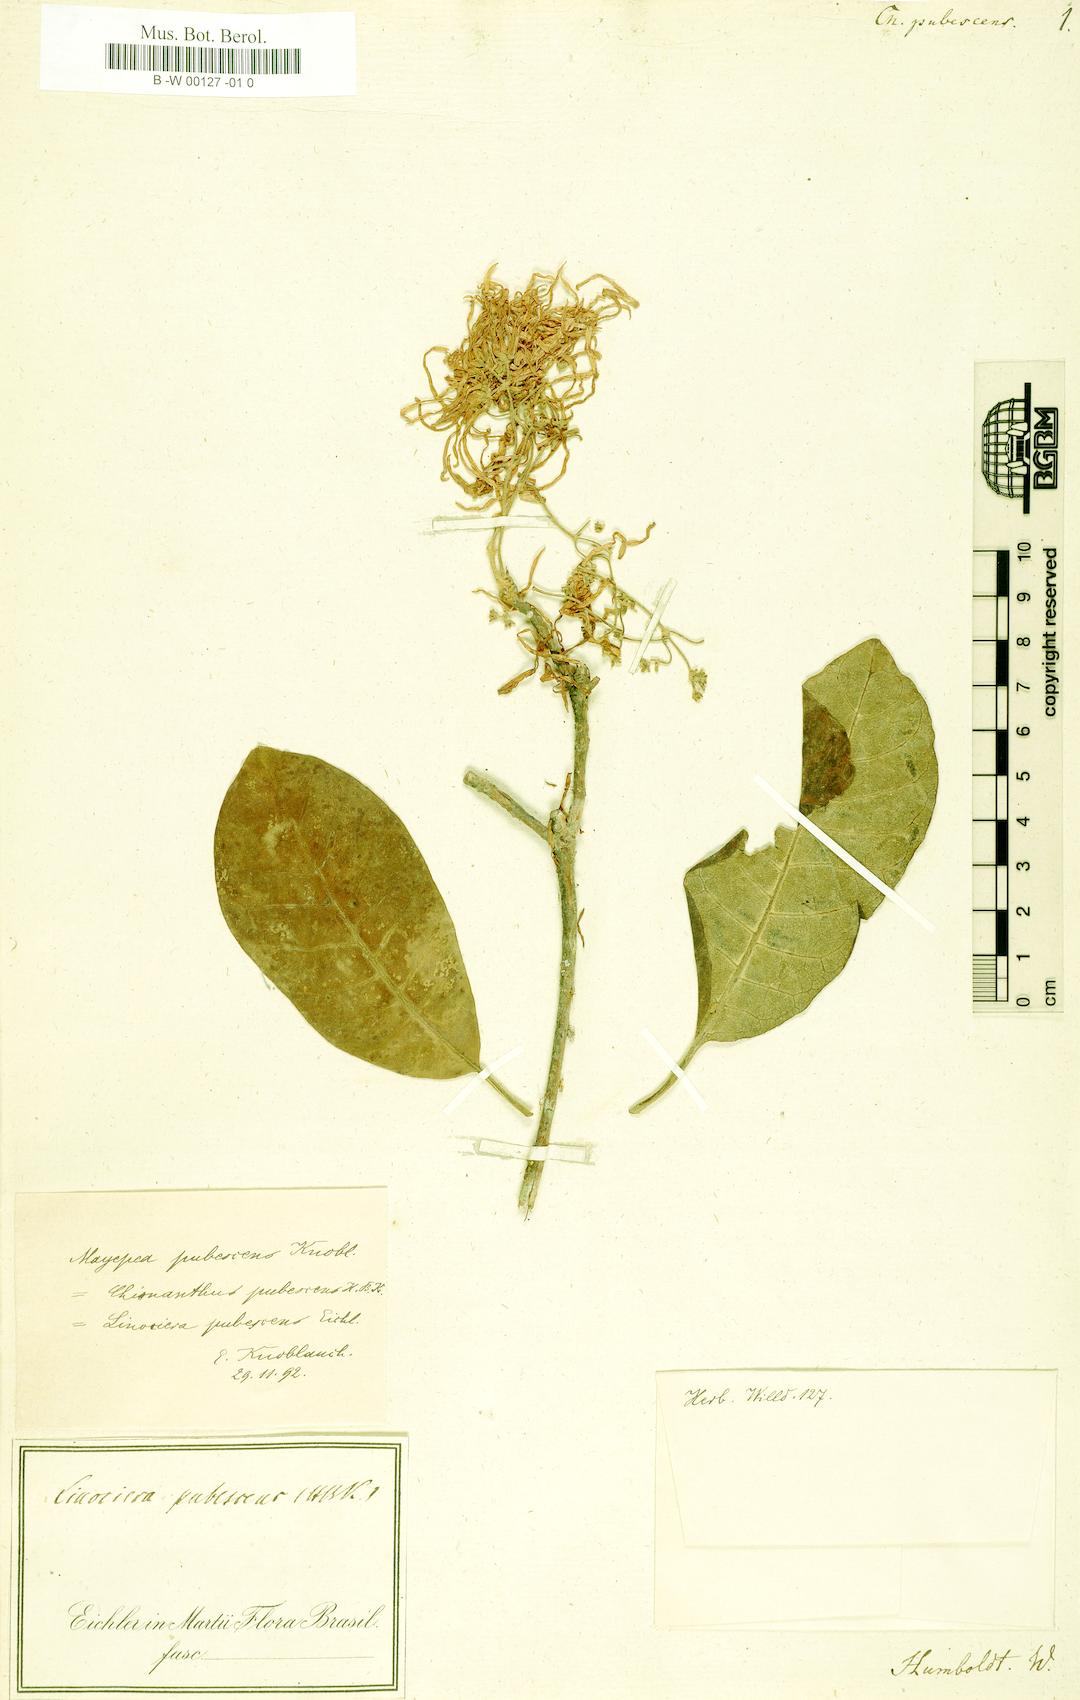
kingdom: Plantae
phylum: Tracheophyta
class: Magnoliopsida
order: Lamiales
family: Oleaceae
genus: Chionanthus
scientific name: Chionanthus pubescens
